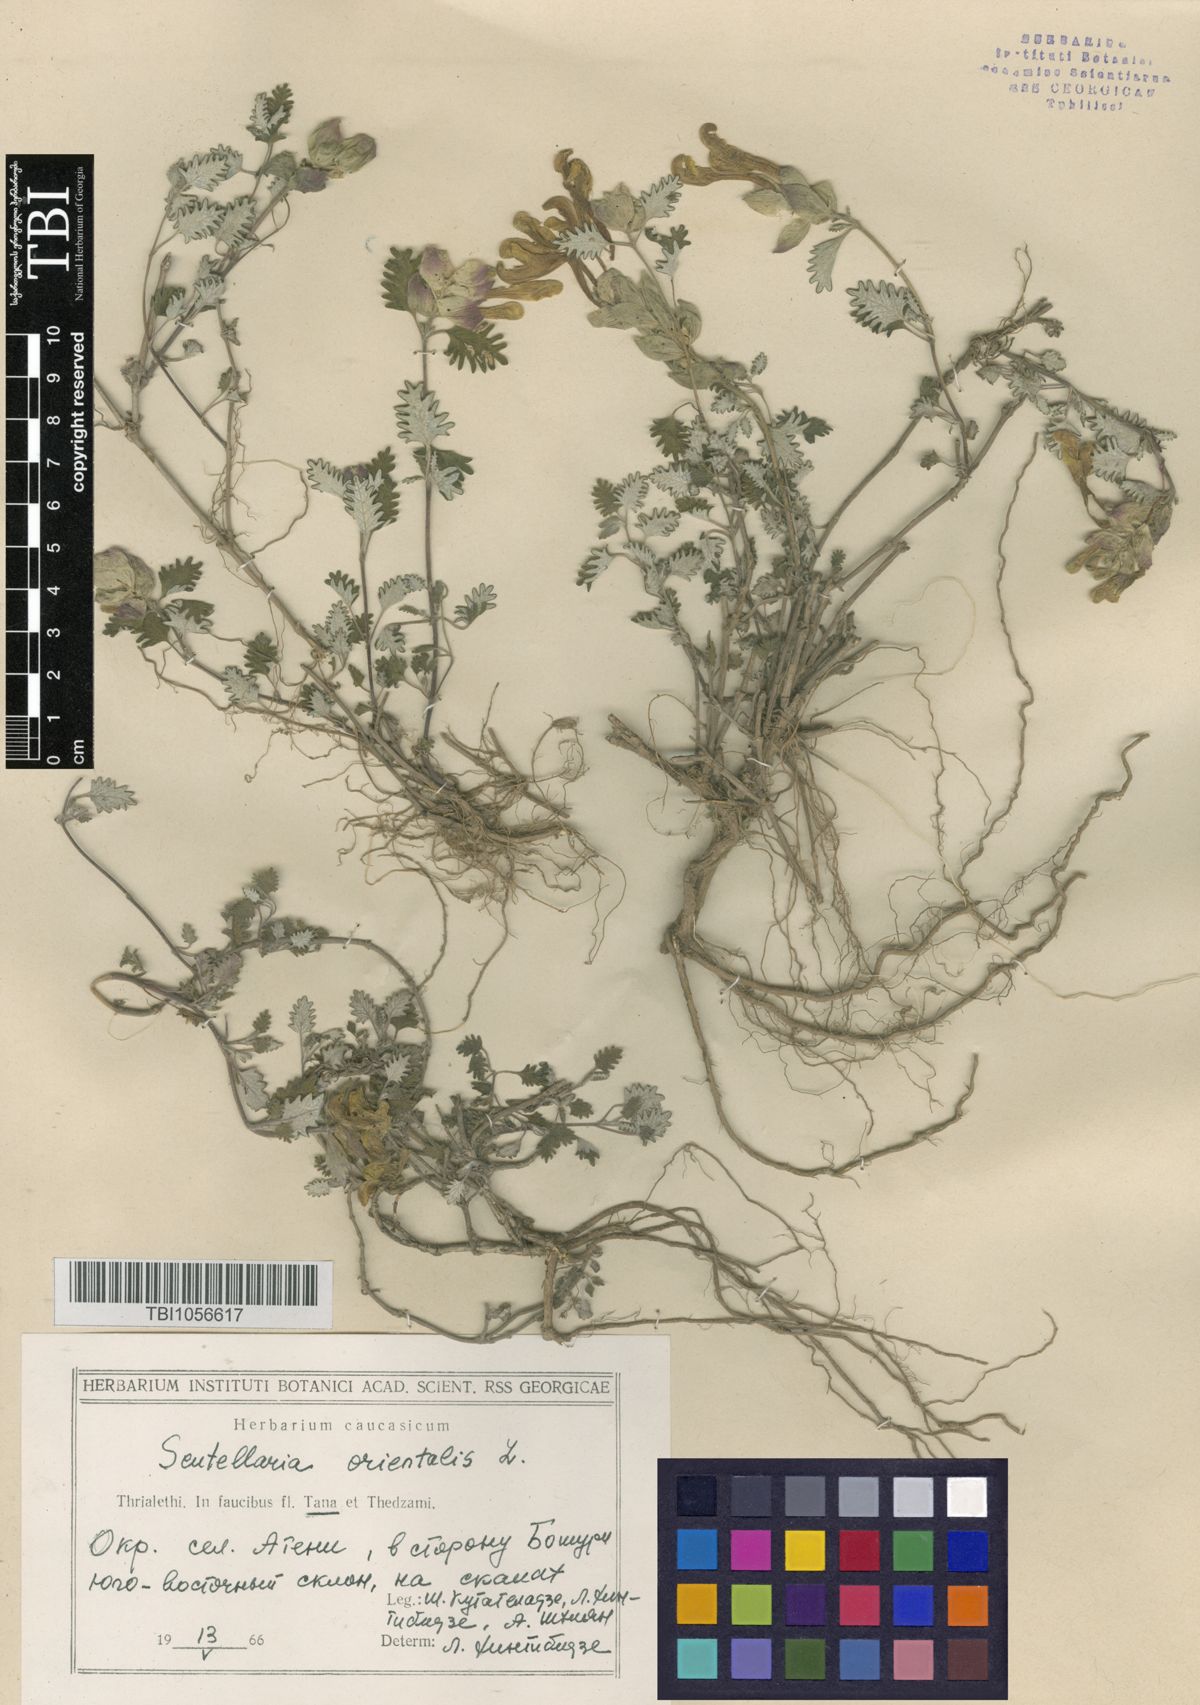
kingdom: Plantae
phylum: Tracheophyta
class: Magnoliopsida
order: Lamiales
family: Lamiaceae
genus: Scutellaria
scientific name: Scutellaria orientalis
